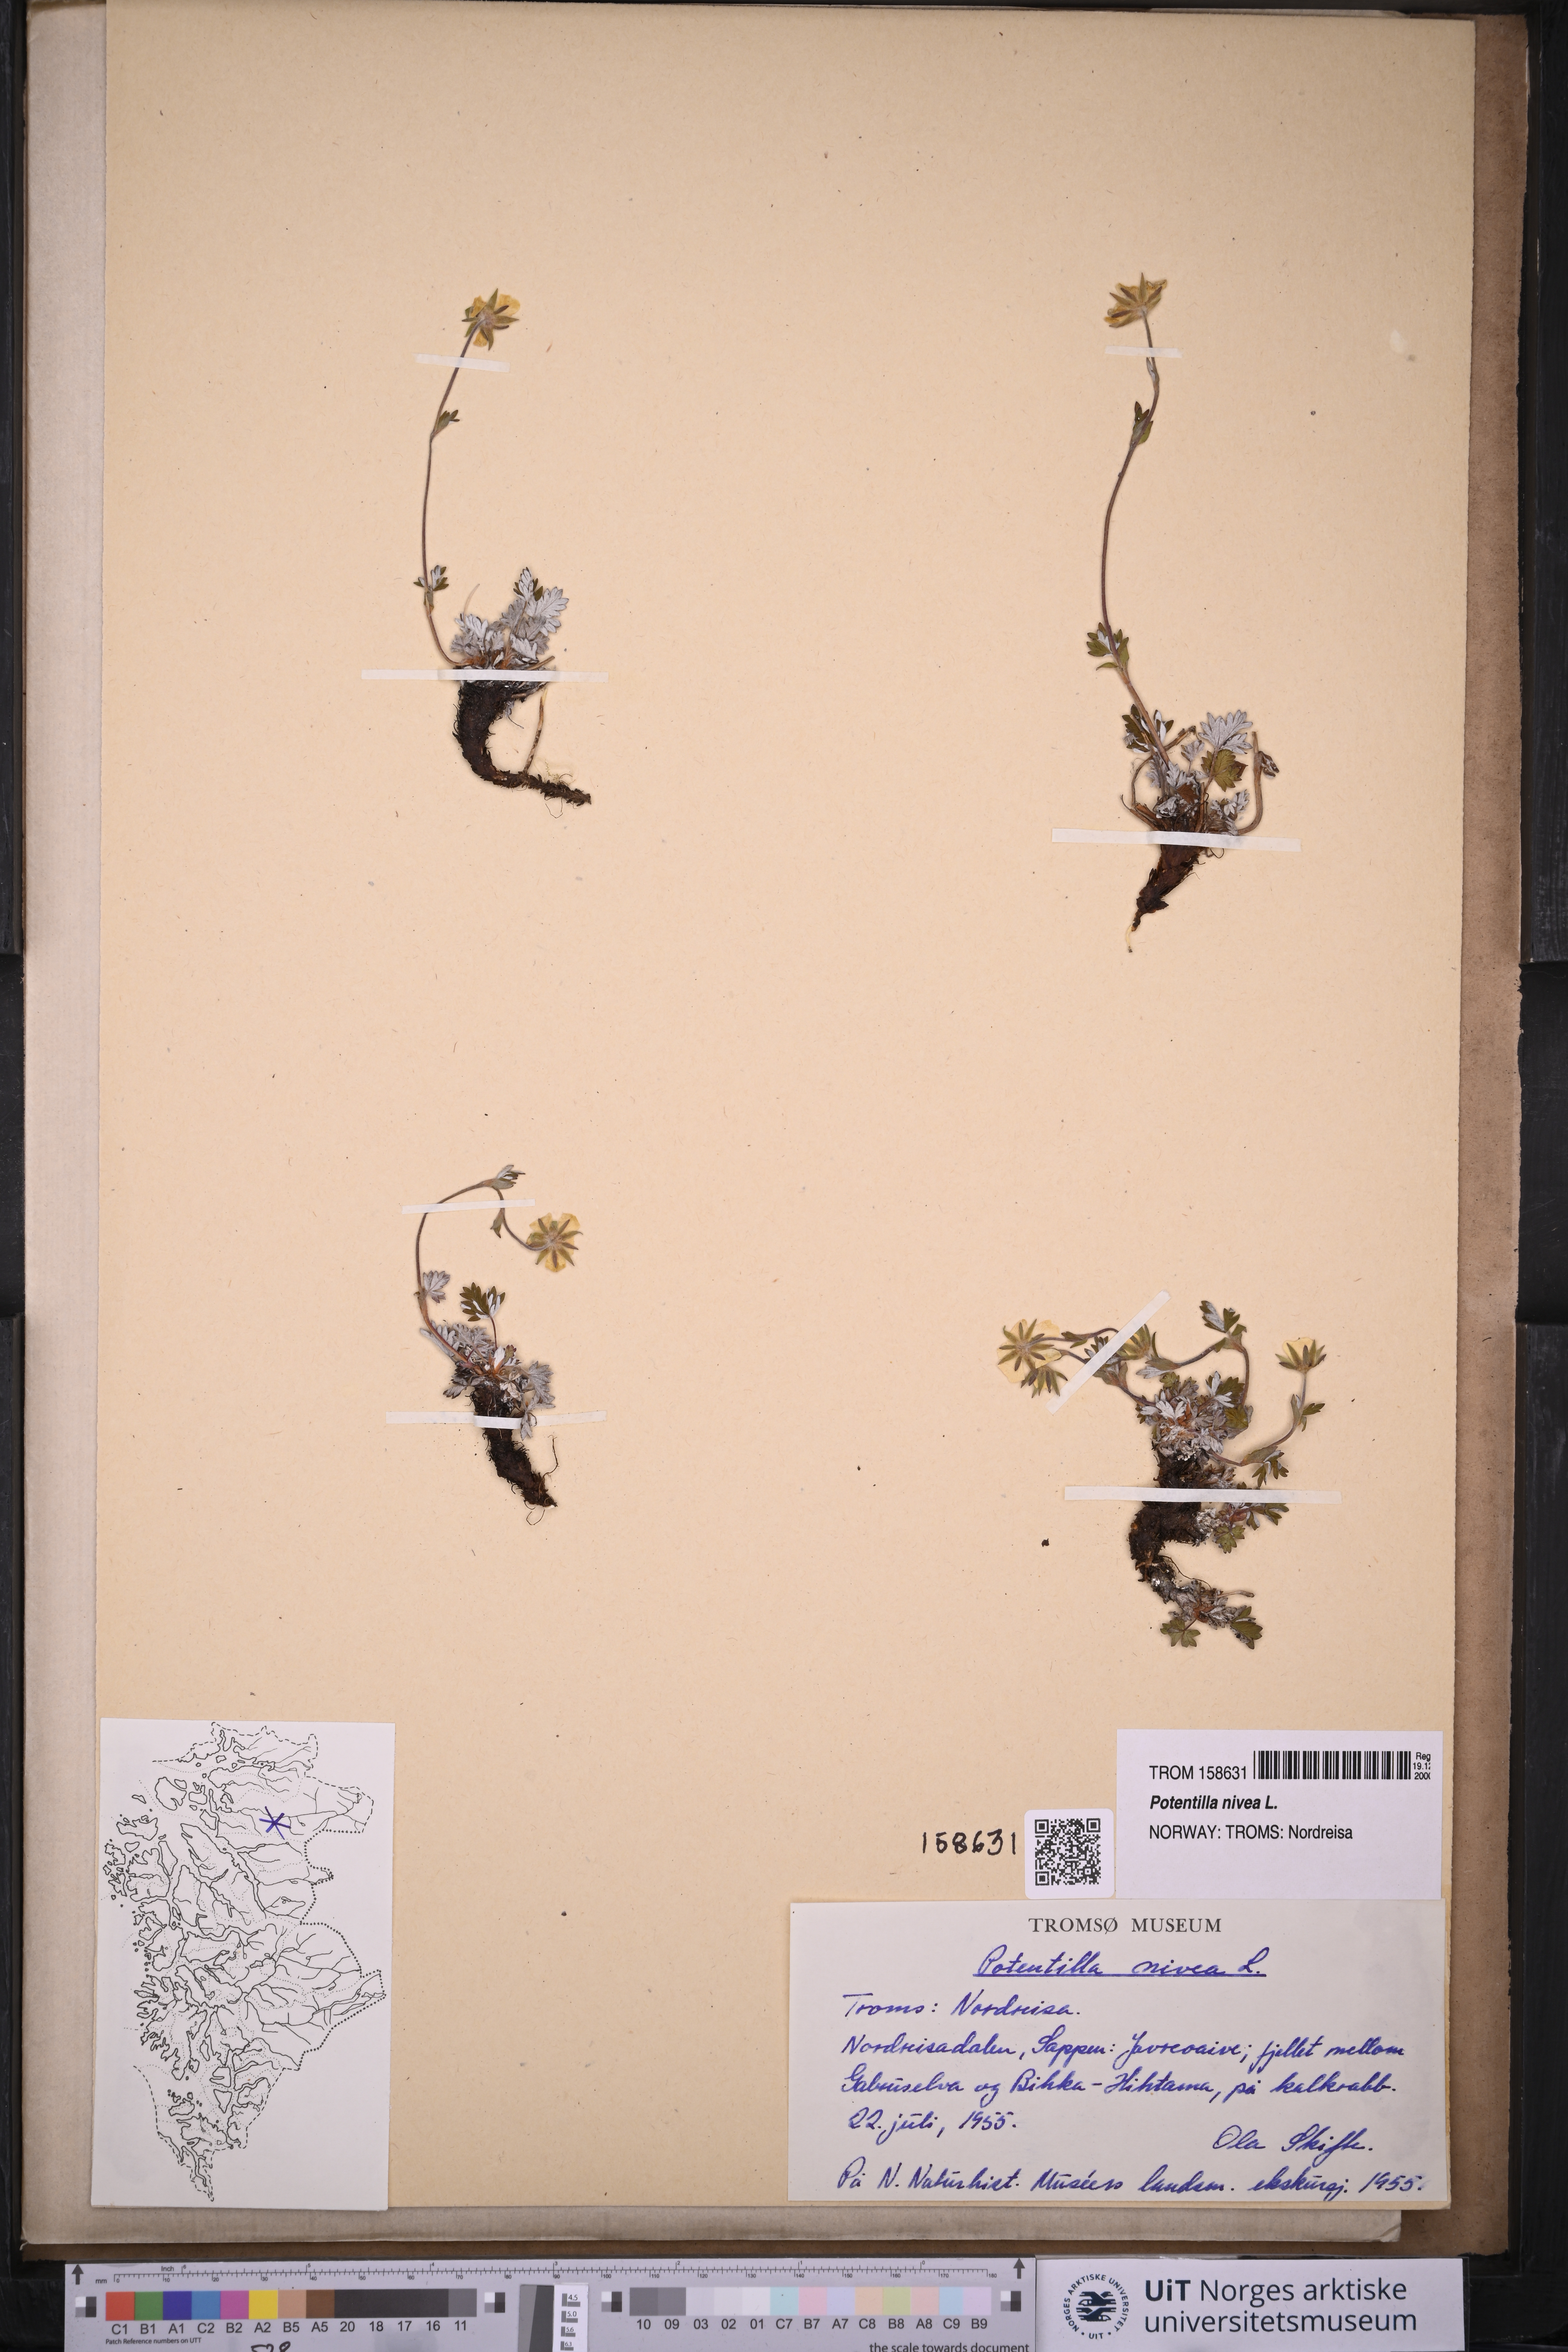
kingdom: Plantae
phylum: Tracheophyta
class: Magnoliopsida
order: Rosales
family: Rosaceae
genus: Potentilla
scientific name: Potentilla arenosa
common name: Bluff cinquefoil
